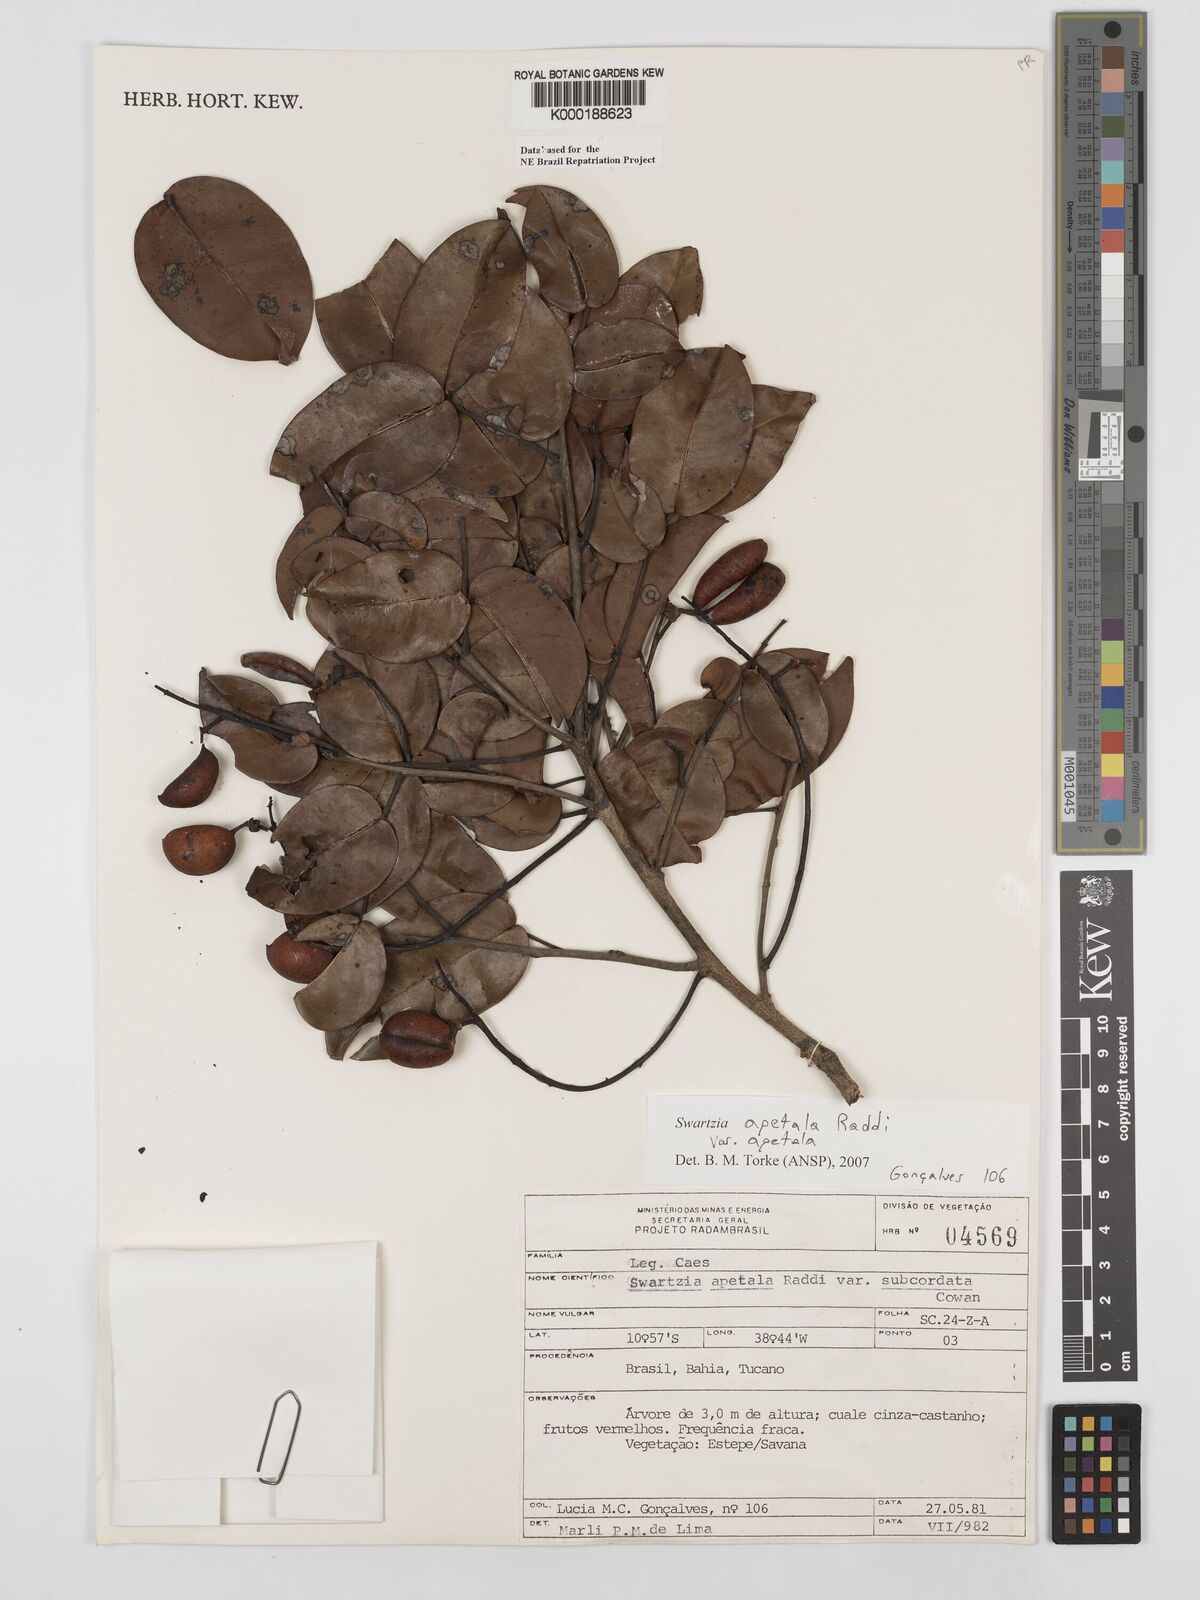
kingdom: Plantae
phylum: Tracheophyta
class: Magnoliopsida
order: Fabales
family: Fabaceae
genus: Swartzia
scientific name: Swartzia apetala
